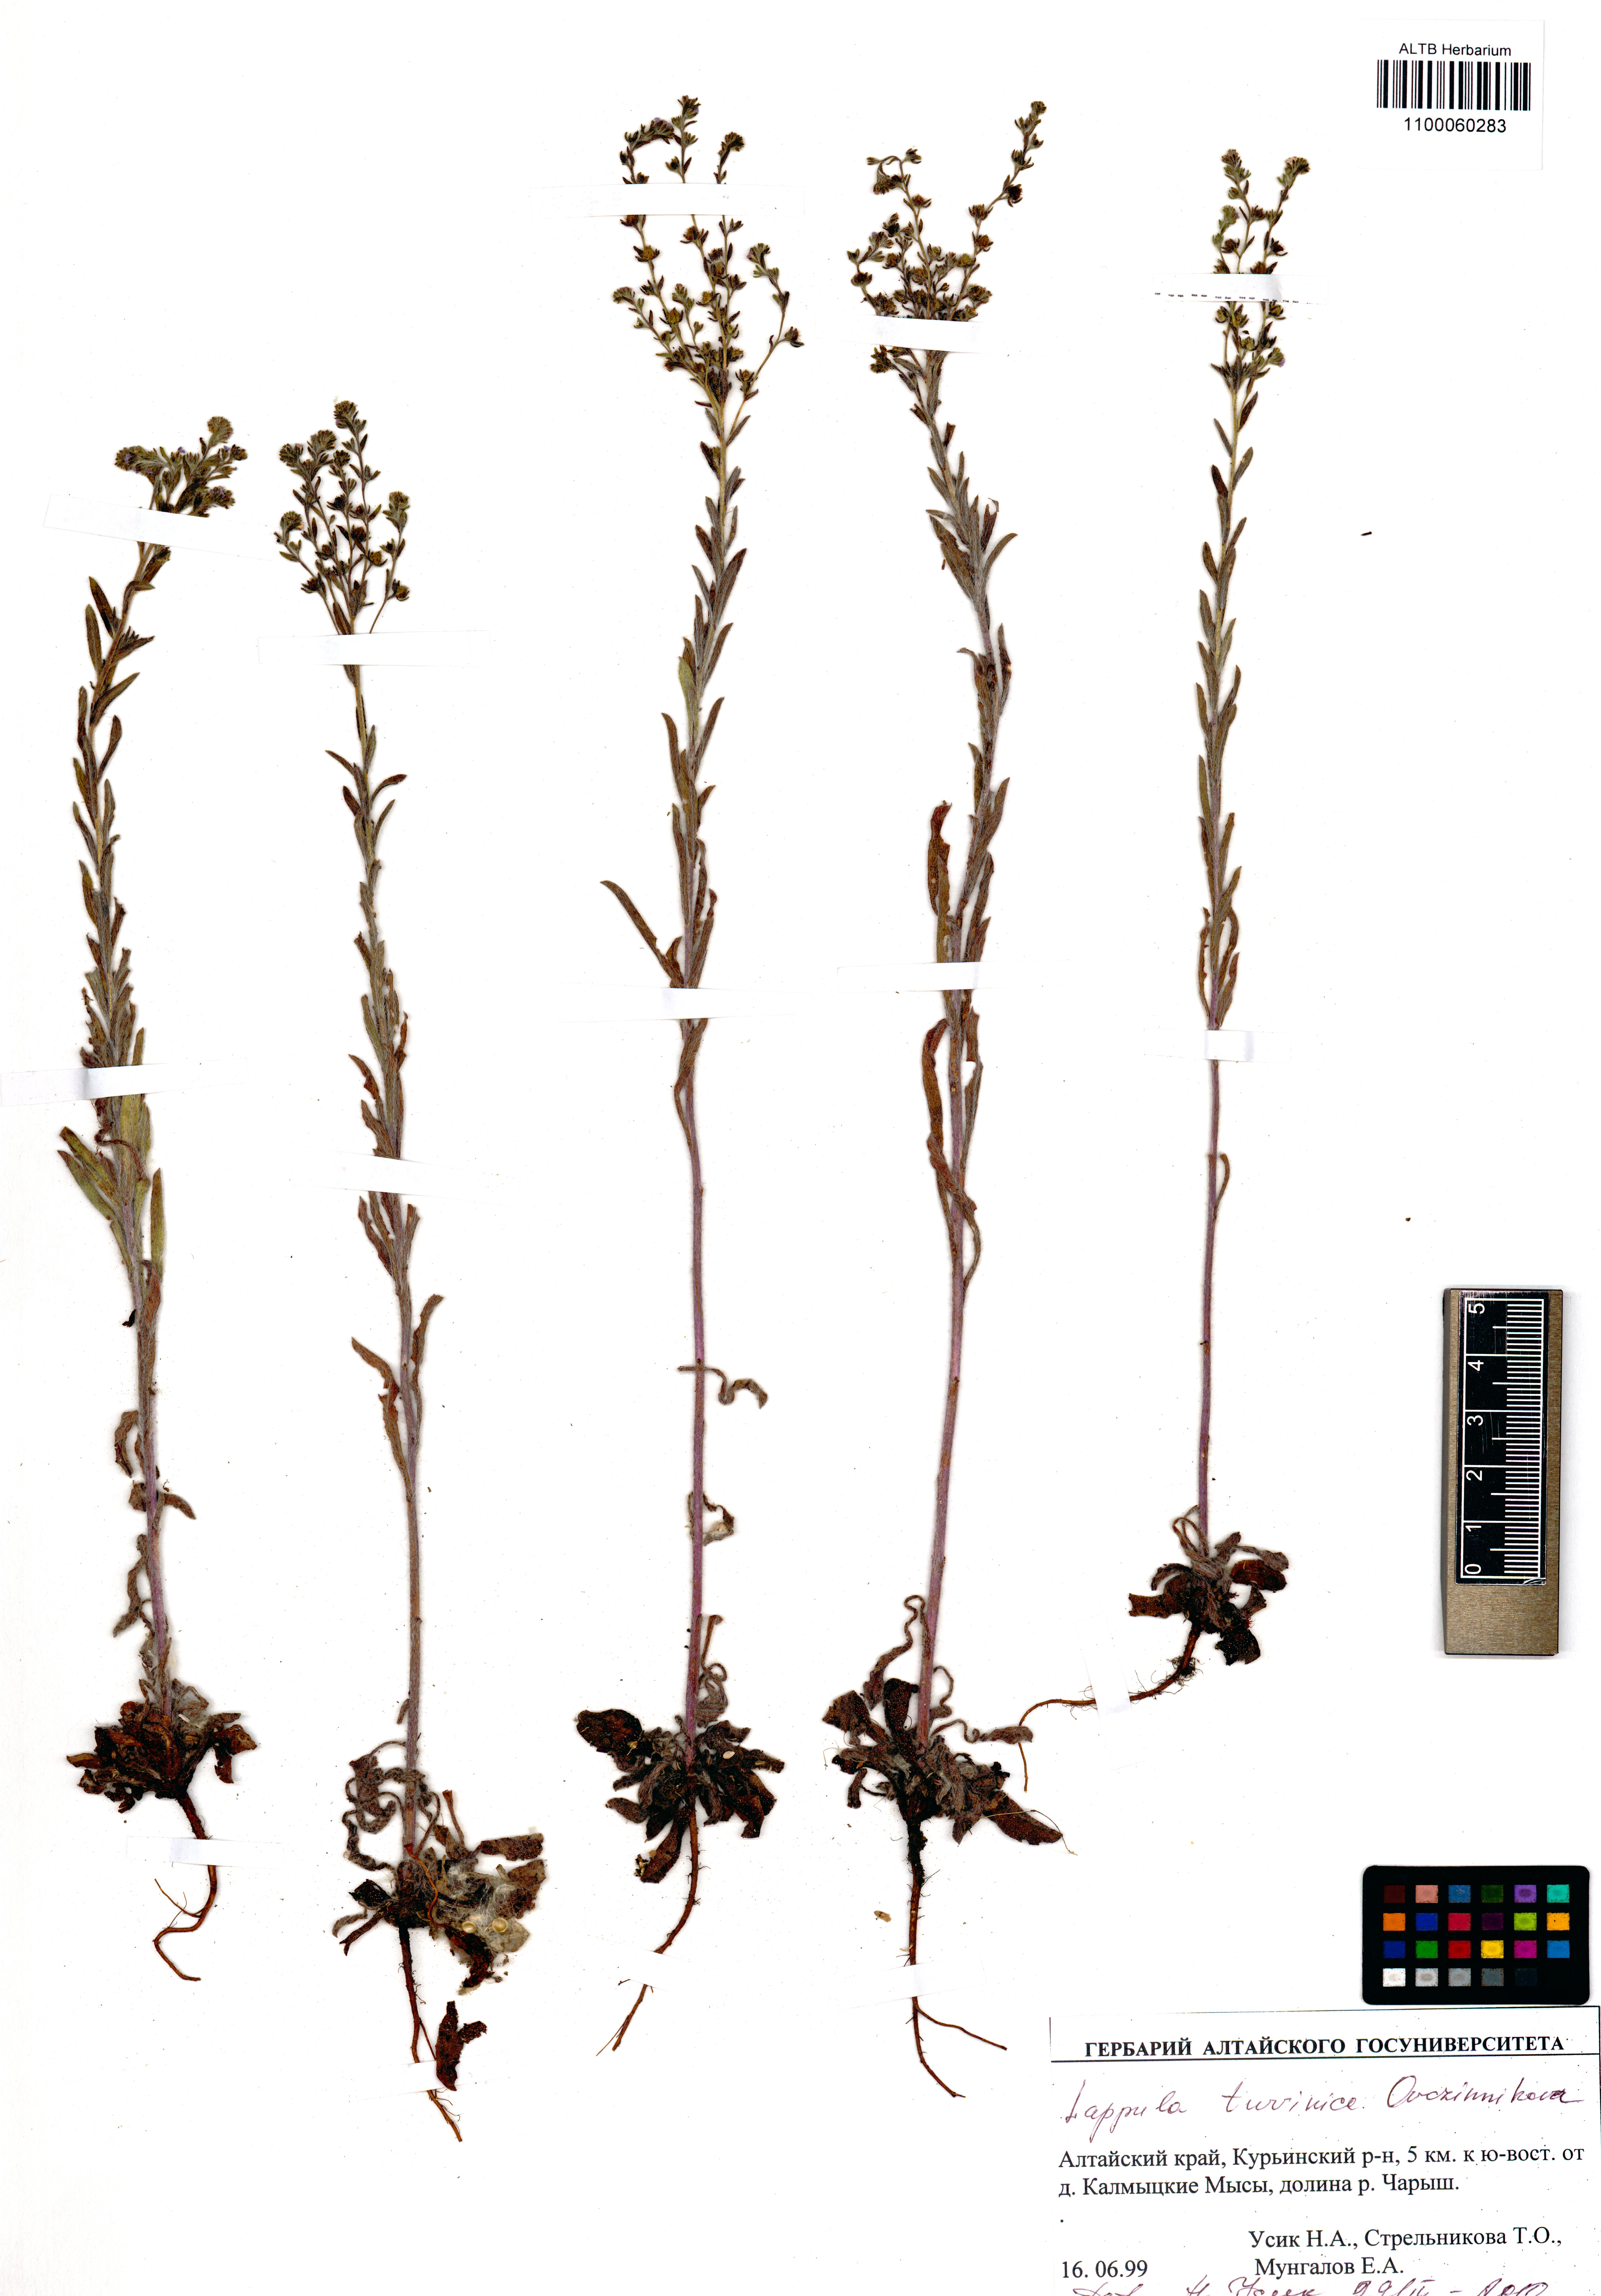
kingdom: Plantae
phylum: Tracheophyta
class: Magnoliopsida
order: Boraginales
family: Boraginaceae
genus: Lappula
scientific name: Lappula tuvinica
